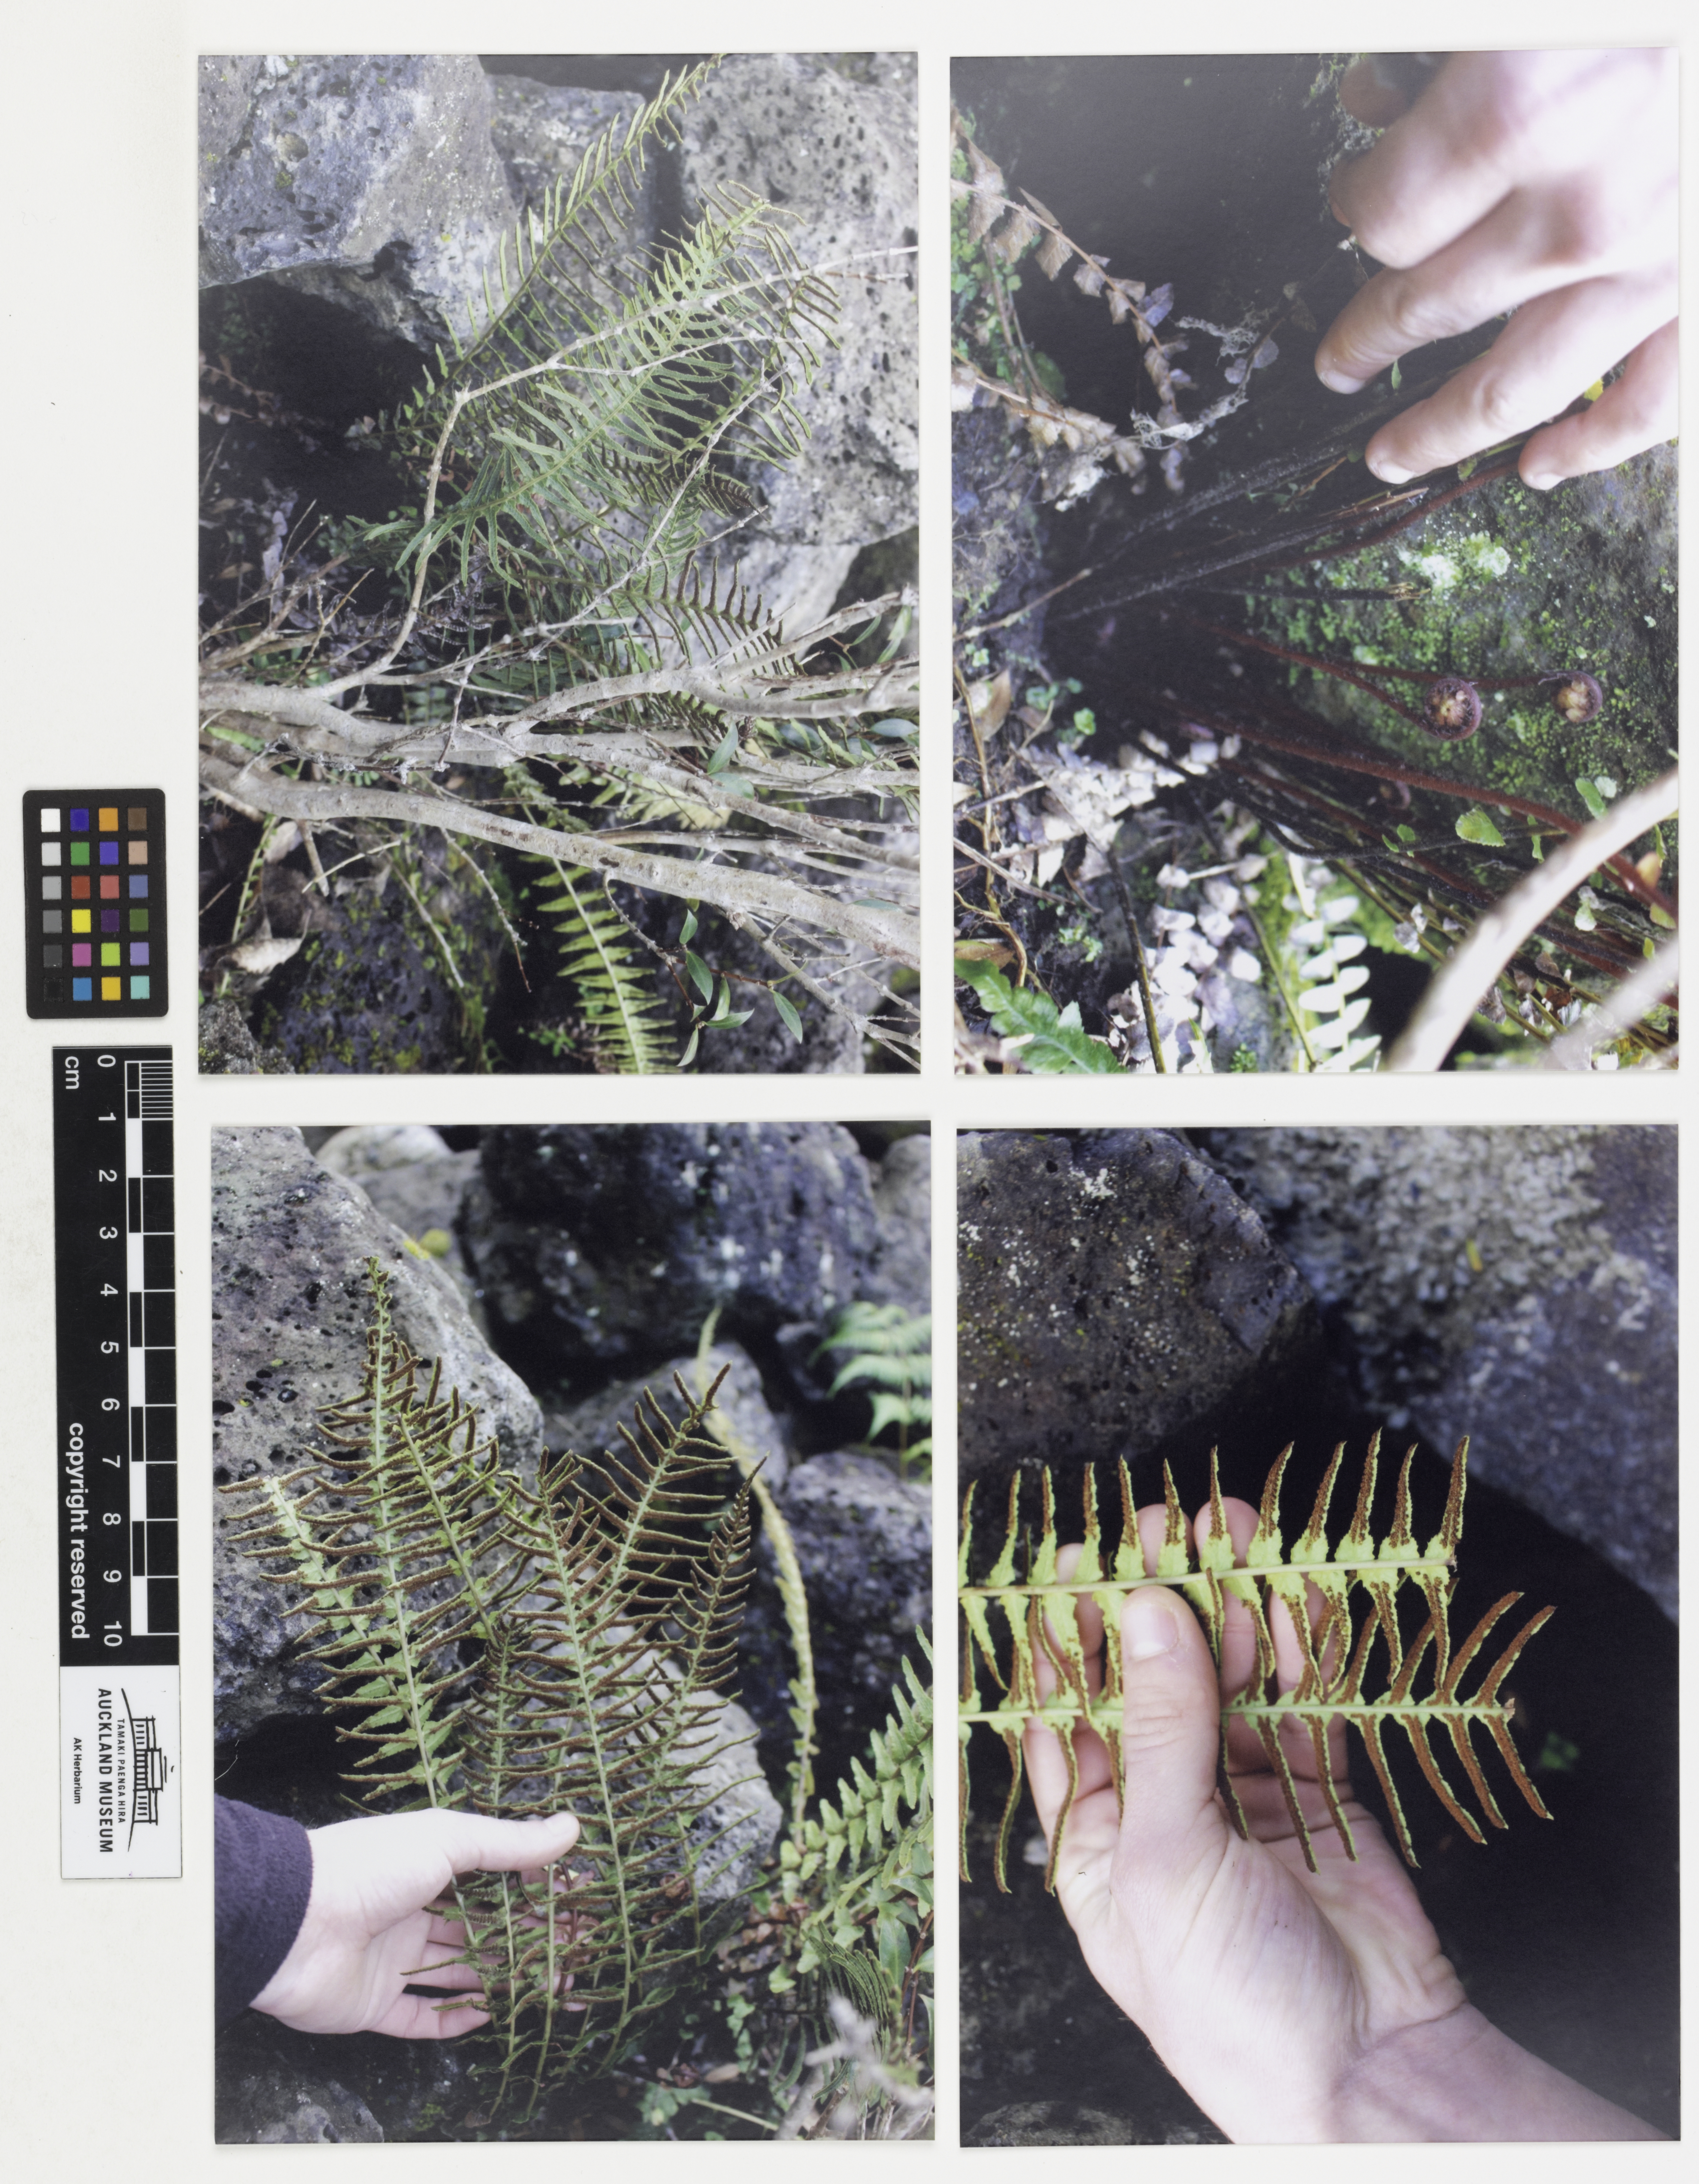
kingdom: Plantae
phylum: Tracheophyta
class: Polypodiopsida
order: Polypodiales
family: Blechnaceae
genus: Doodia
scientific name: Doodia digena
